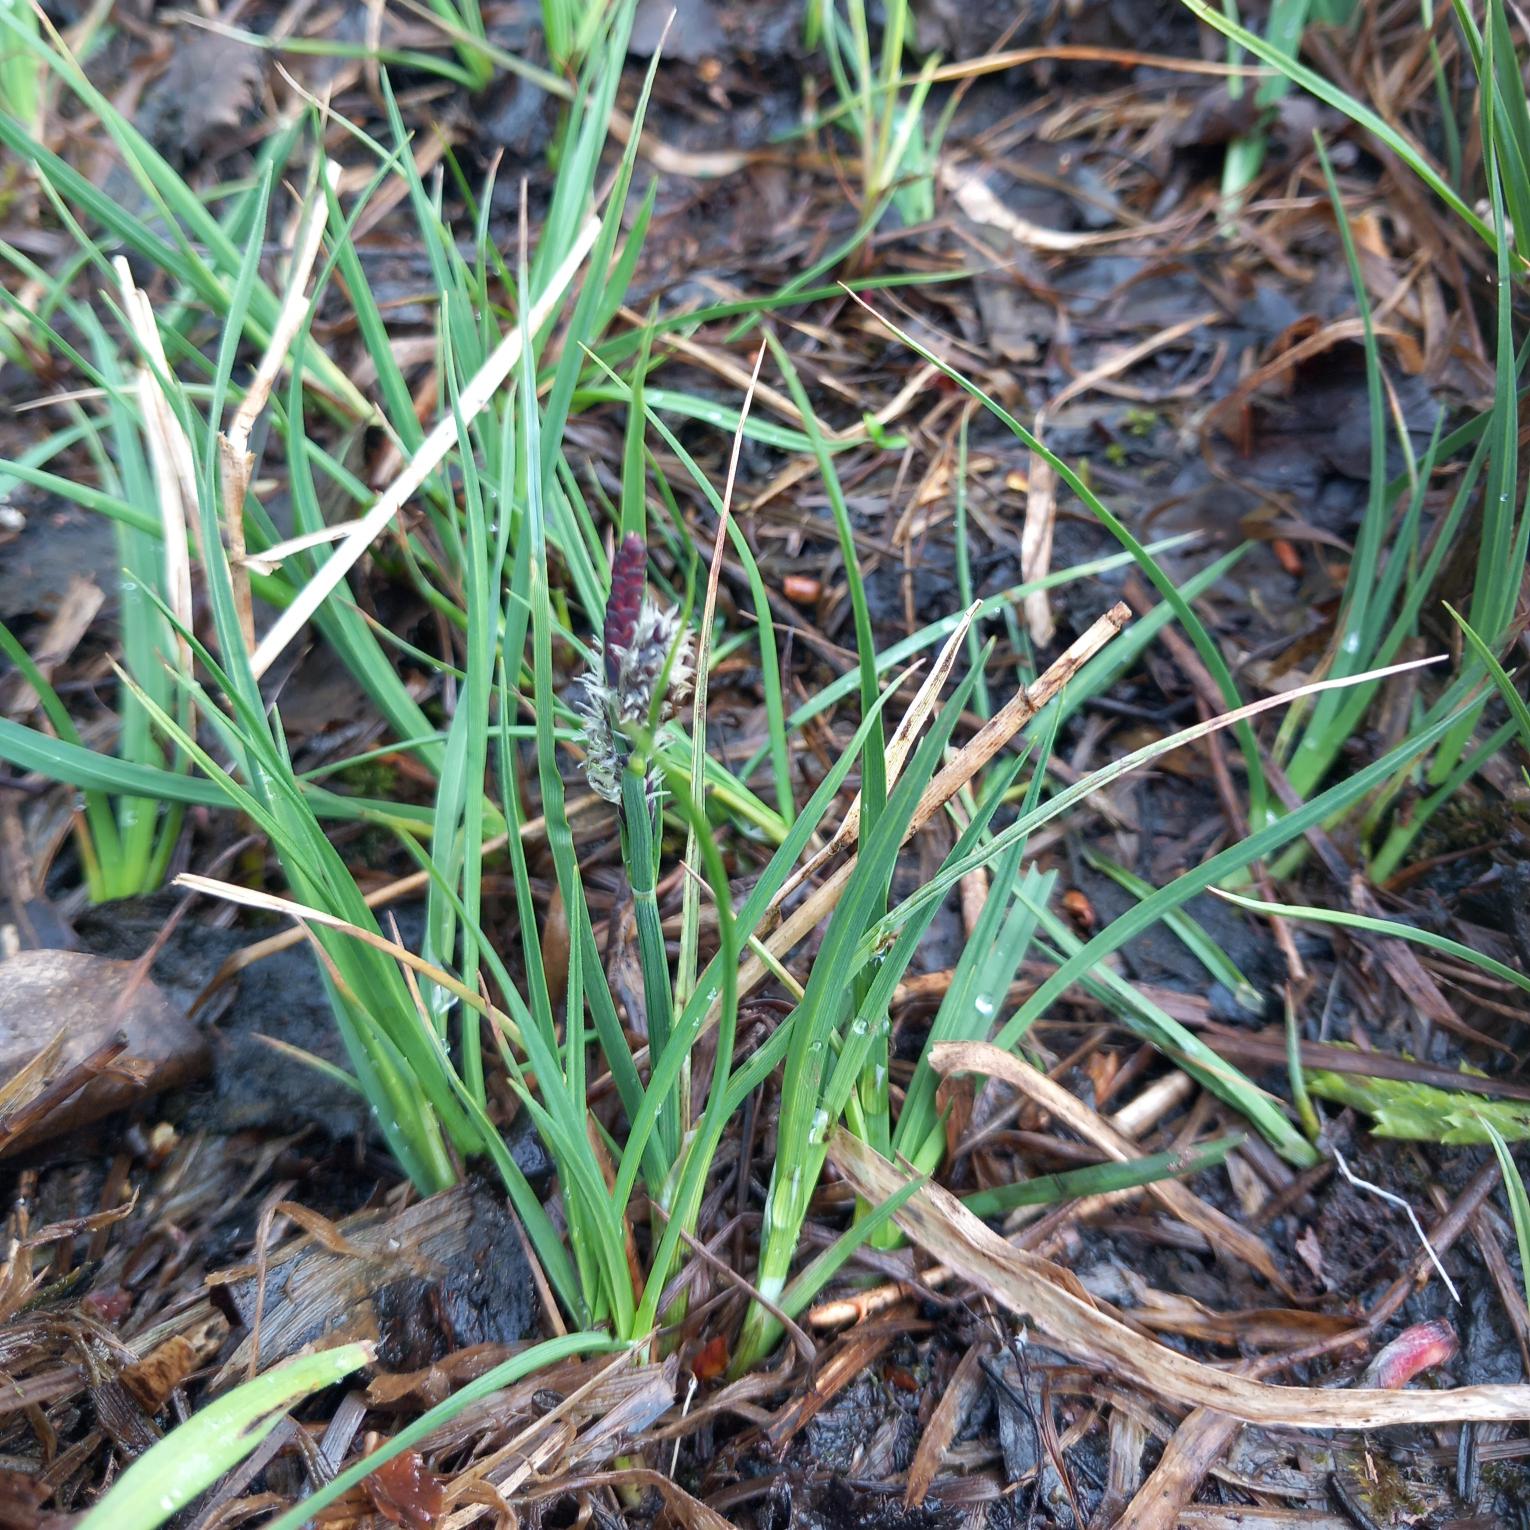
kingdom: Plantae
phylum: Tracheophyta
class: Liliopsida
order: Poales
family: Cyperaceae
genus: Carex
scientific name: Carex rostrata
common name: Næb-star
